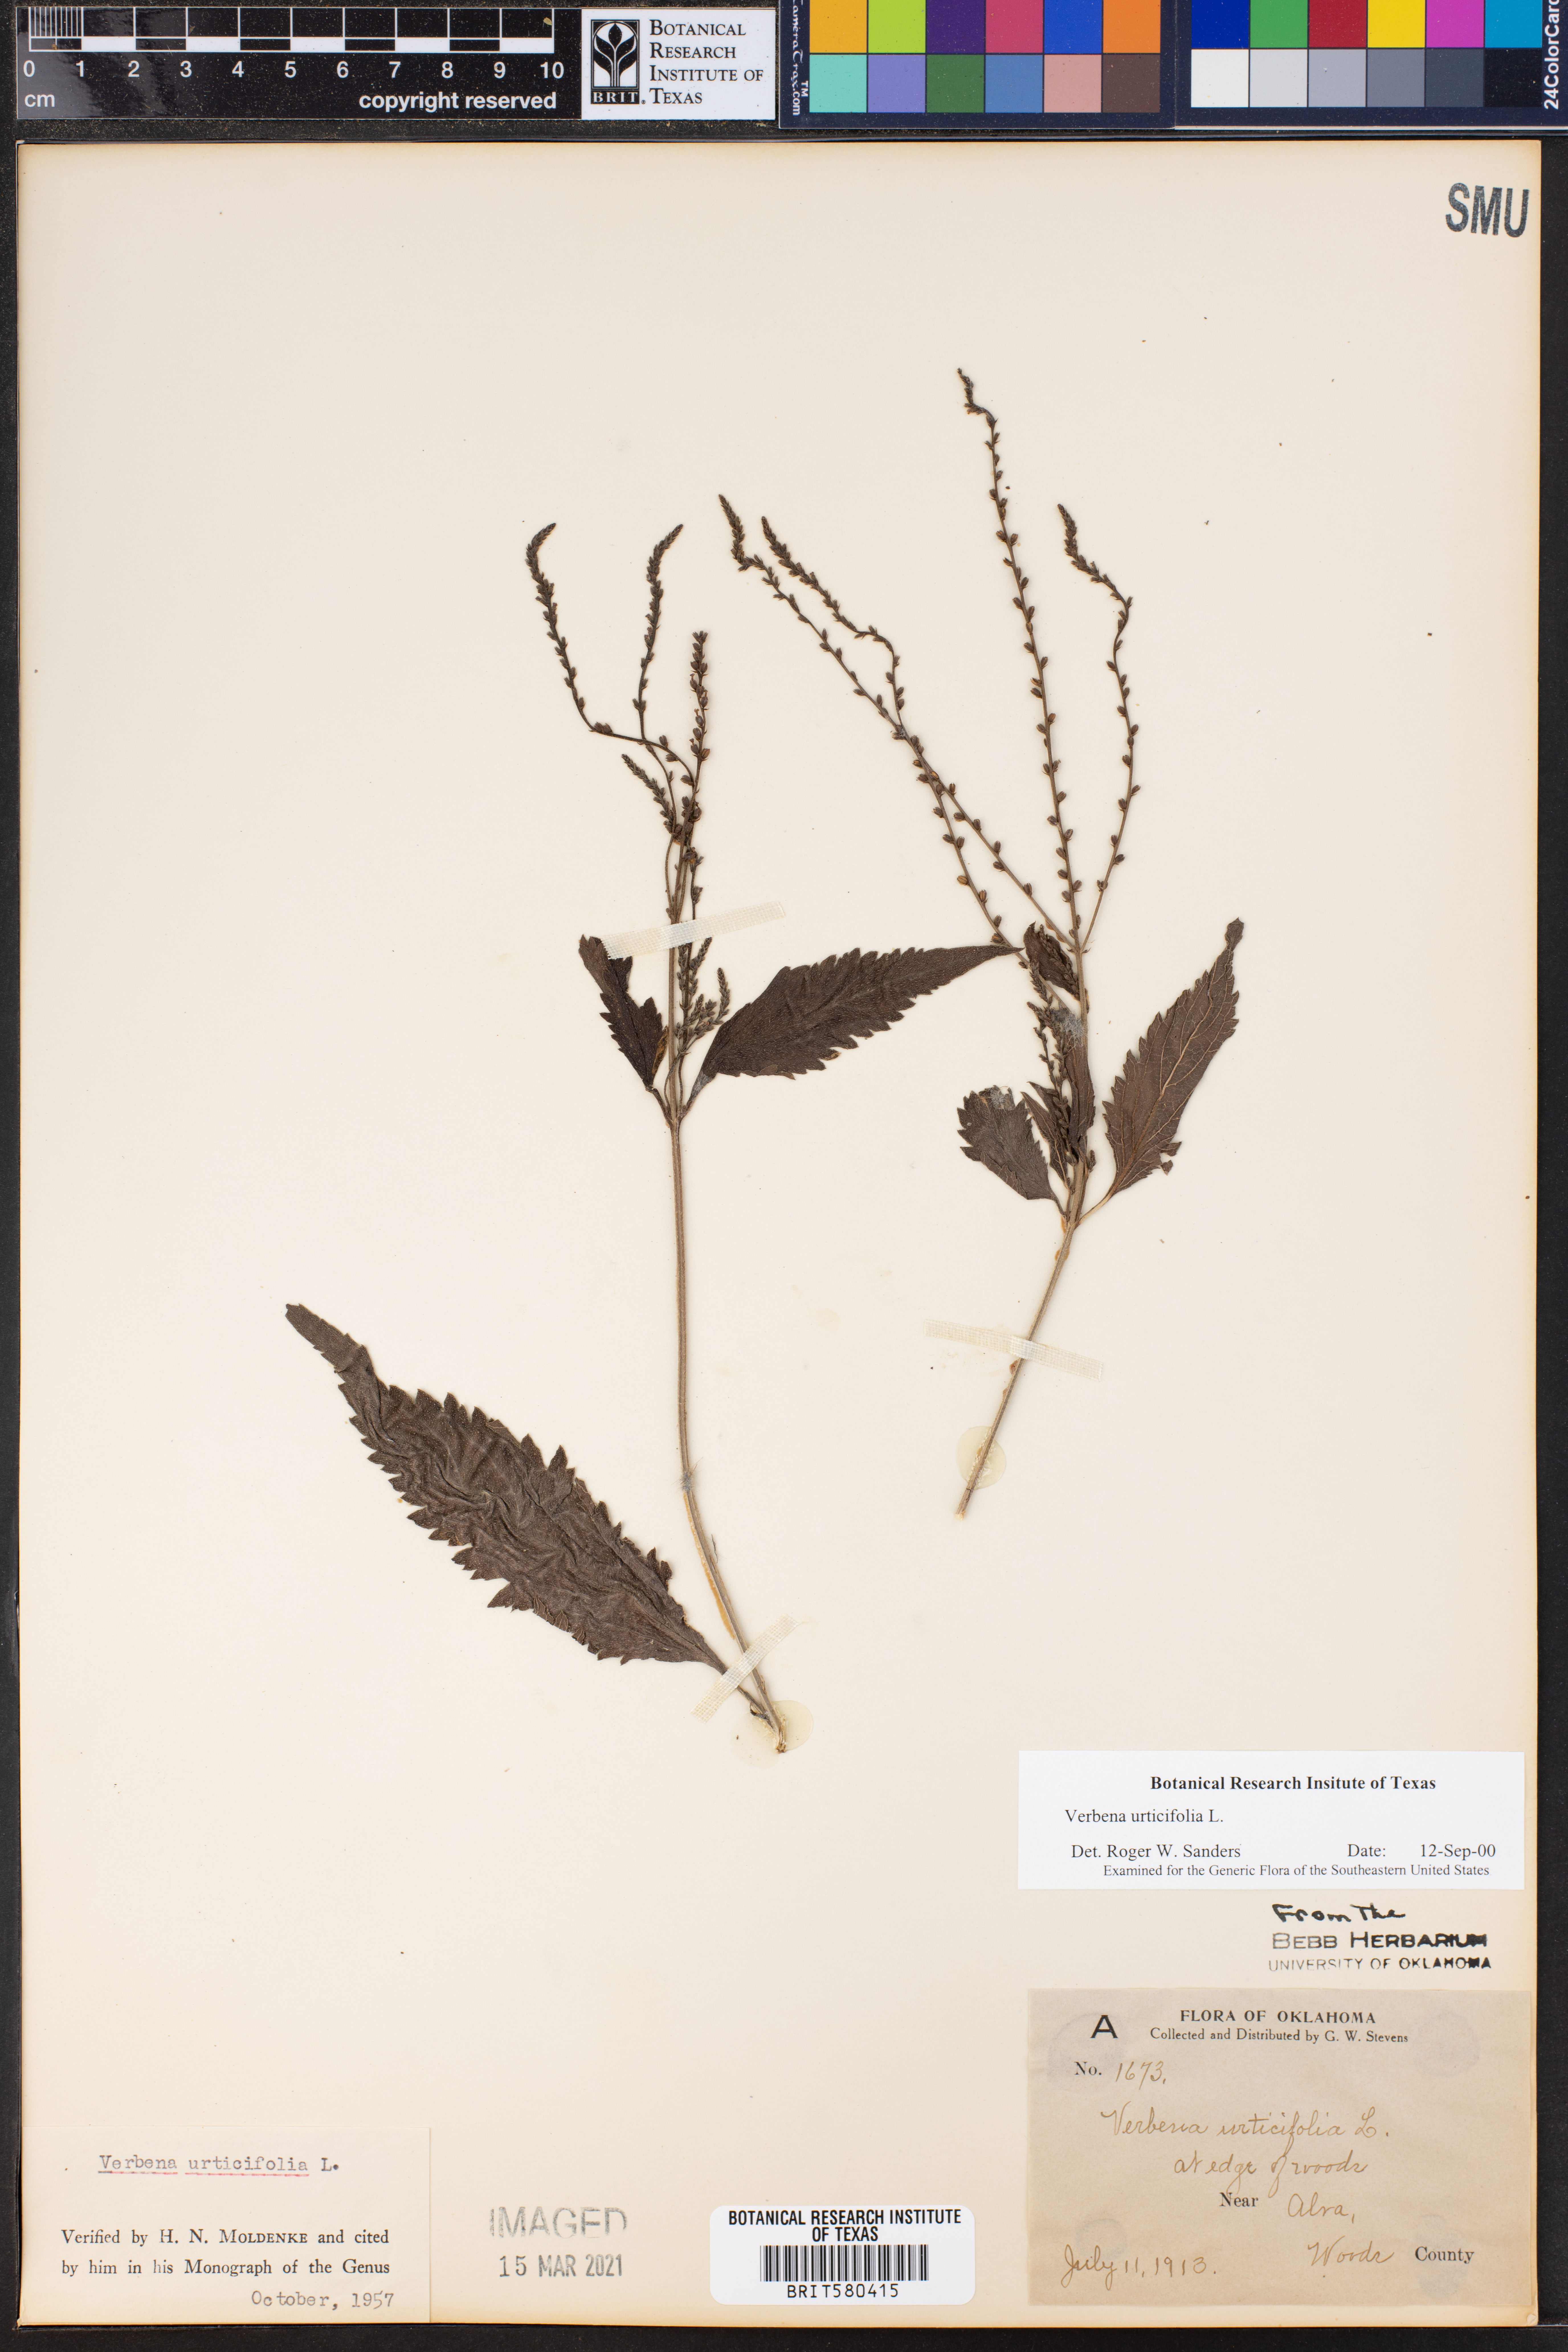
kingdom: Plantae
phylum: Tracheophyta
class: Magnoliopsida
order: Lamiales
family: Verbenaceae
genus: Verbena
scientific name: Verbena urticifolia
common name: Nettle-leaved vervain
